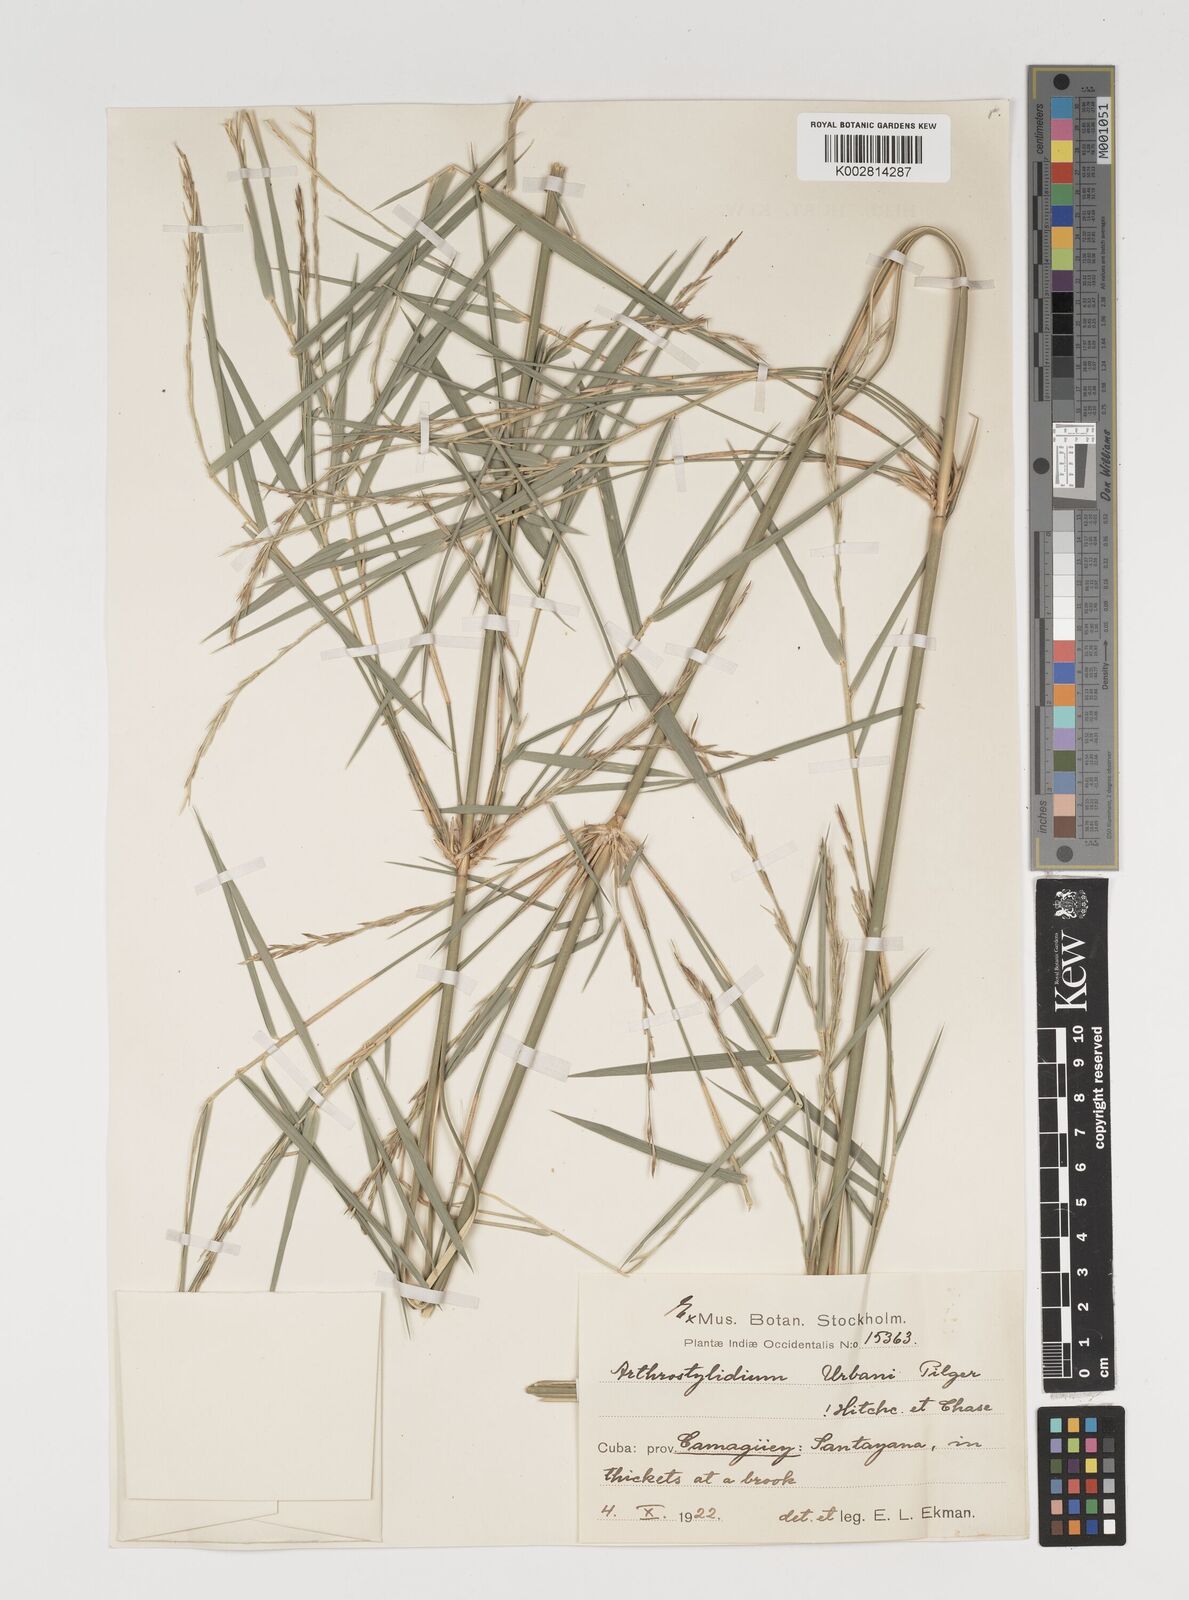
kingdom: Plantae
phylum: Tracheophyta
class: Liliopsida
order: Poales
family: Poaceae
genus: Arthrostylidium
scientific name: Arthrostylidium urbanii
